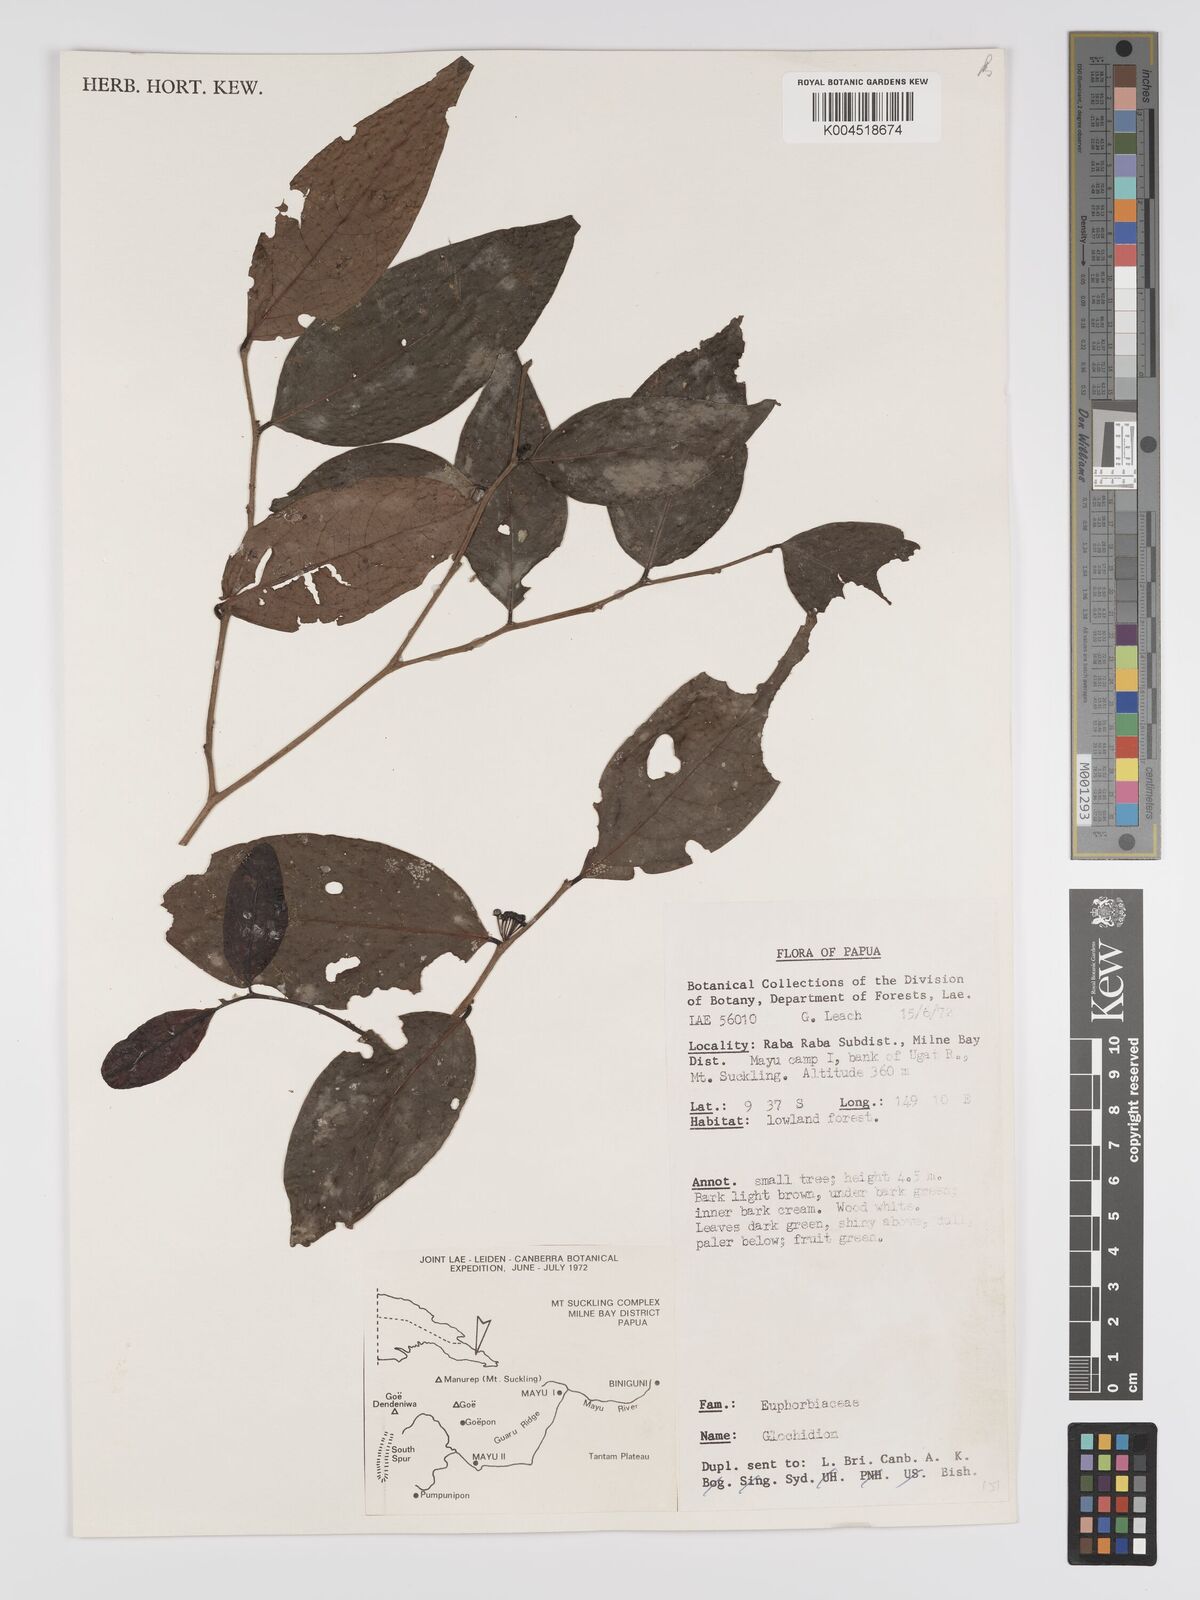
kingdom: Plantae
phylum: Tracheophyta
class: Magnoliopsida
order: Malpighiales
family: Phyllanthaceae
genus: Phyllanthus
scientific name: Phyllanthus aphanostylus
